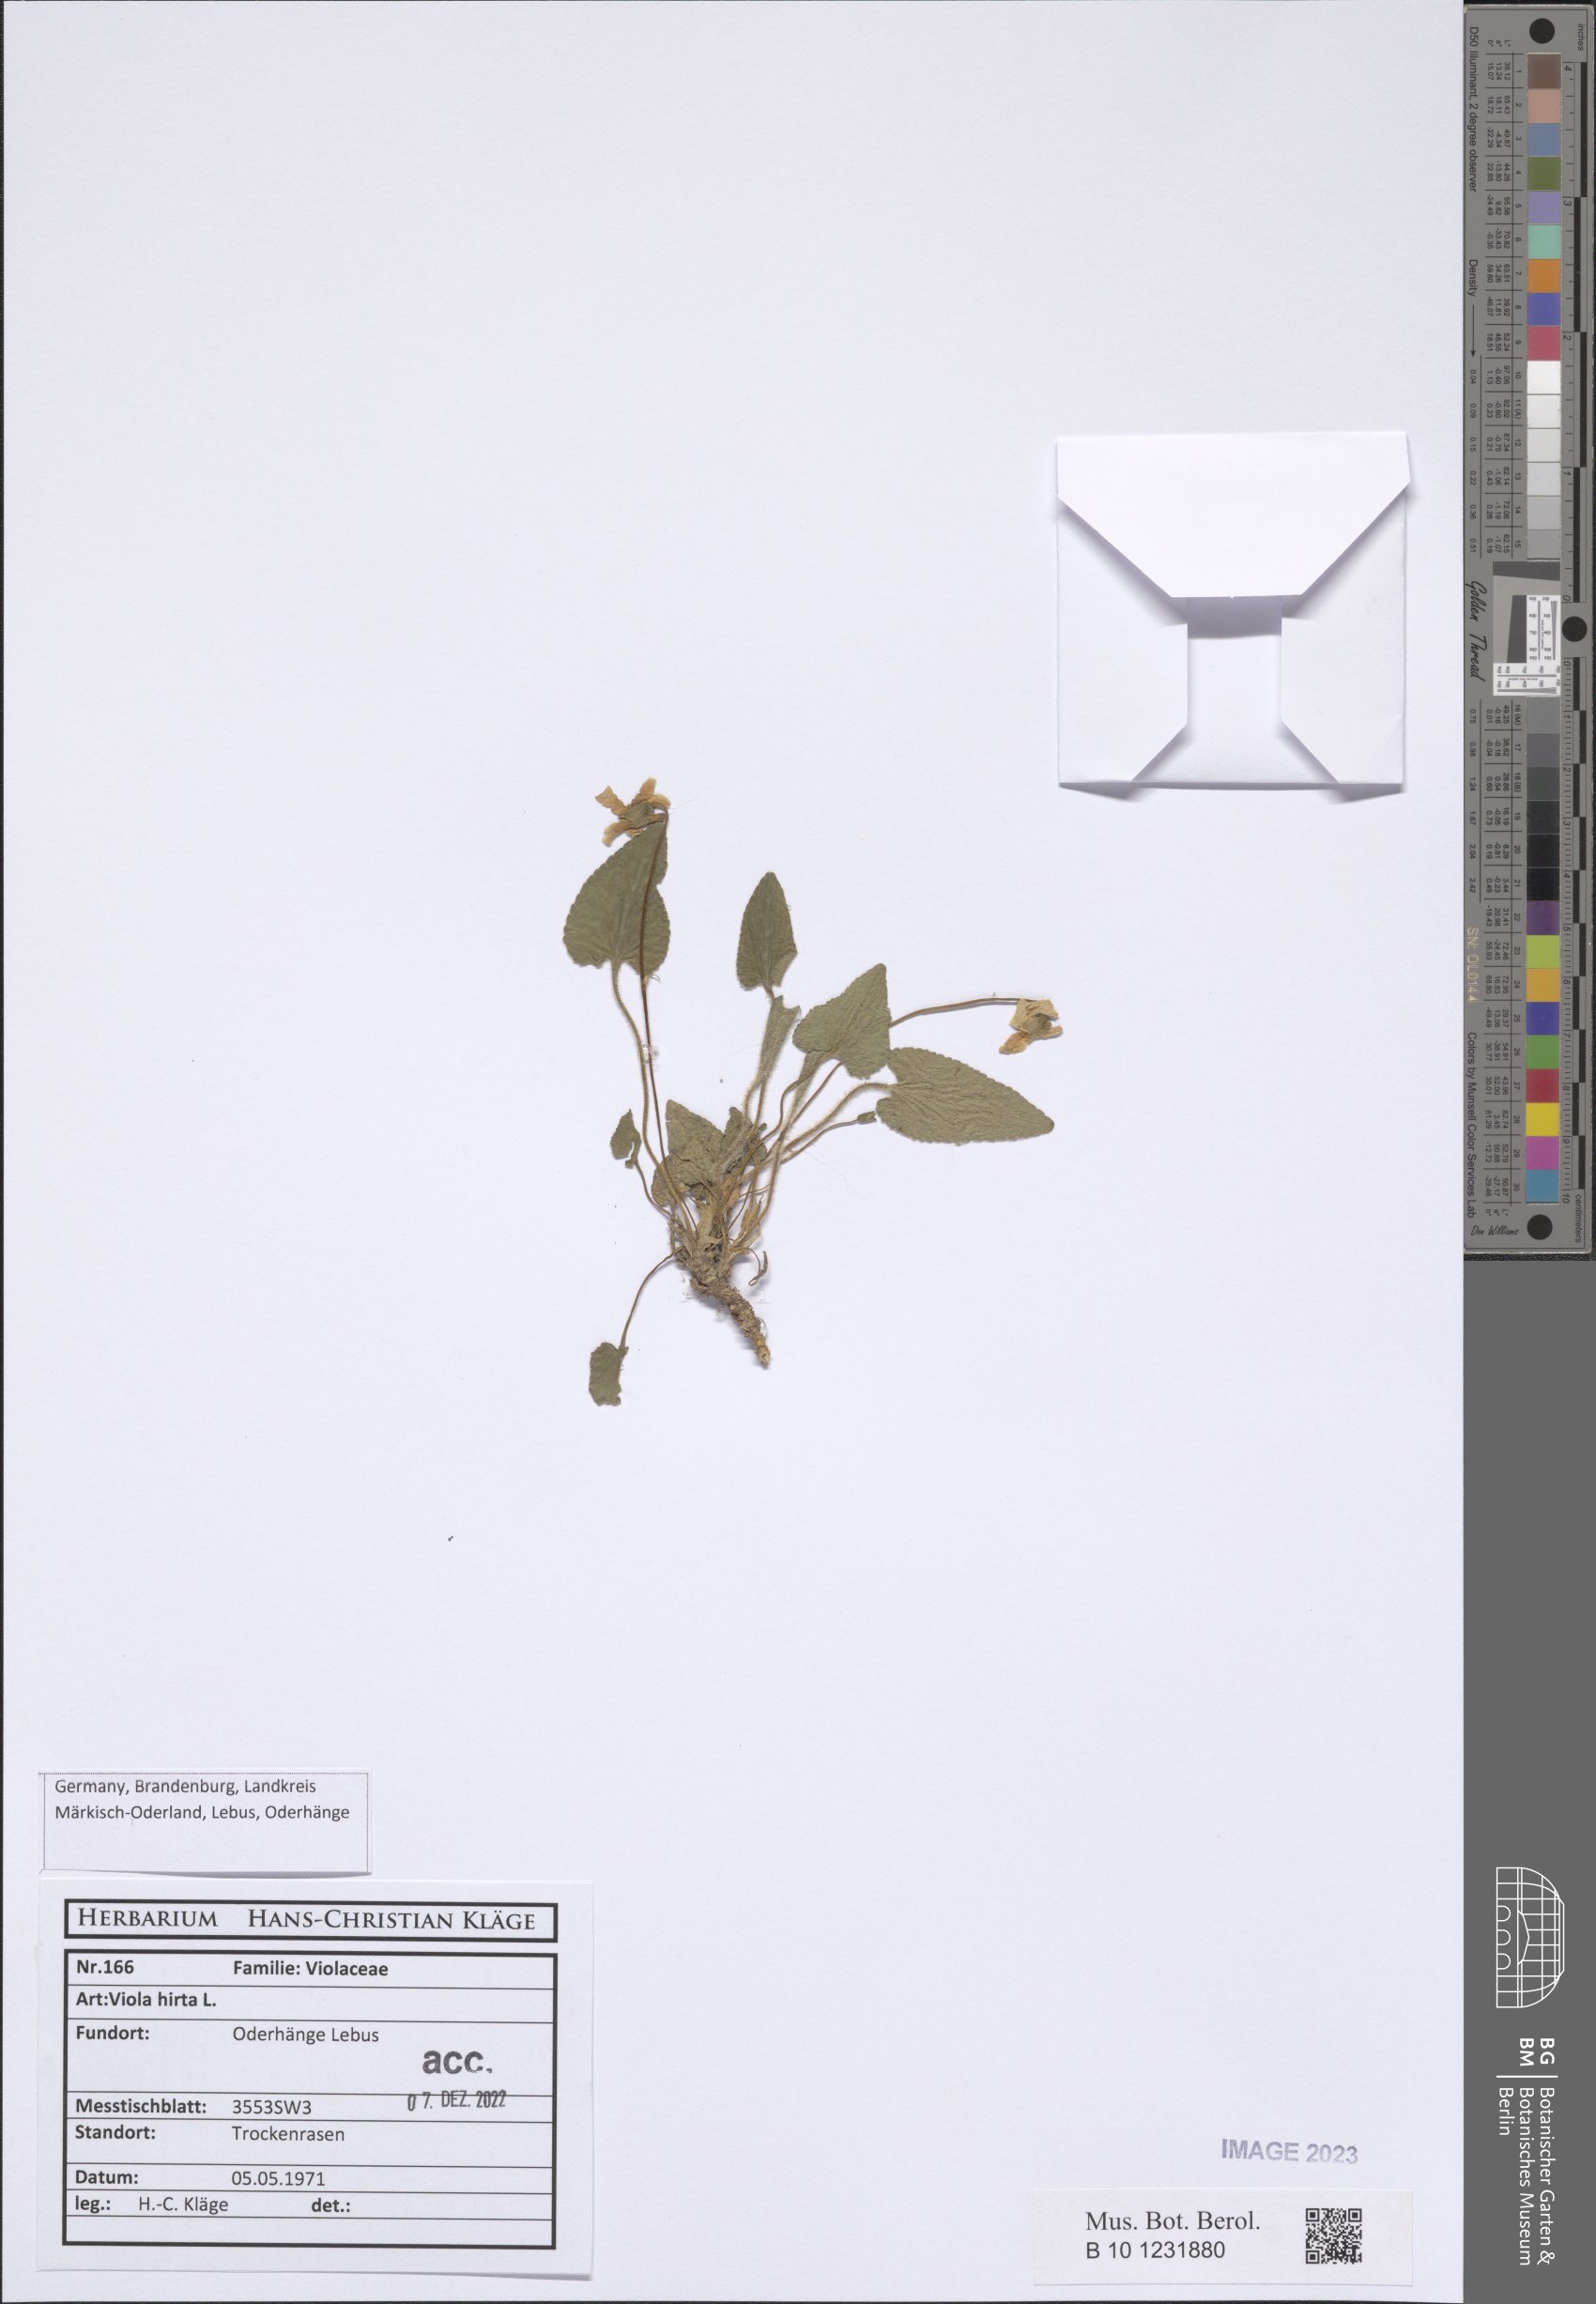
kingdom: Plantae
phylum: Tracheophyta
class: Magnoliopsida
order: Malpighiales
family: Violaceae
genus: Viola
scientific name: Viola hirta
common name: Hairy violet
